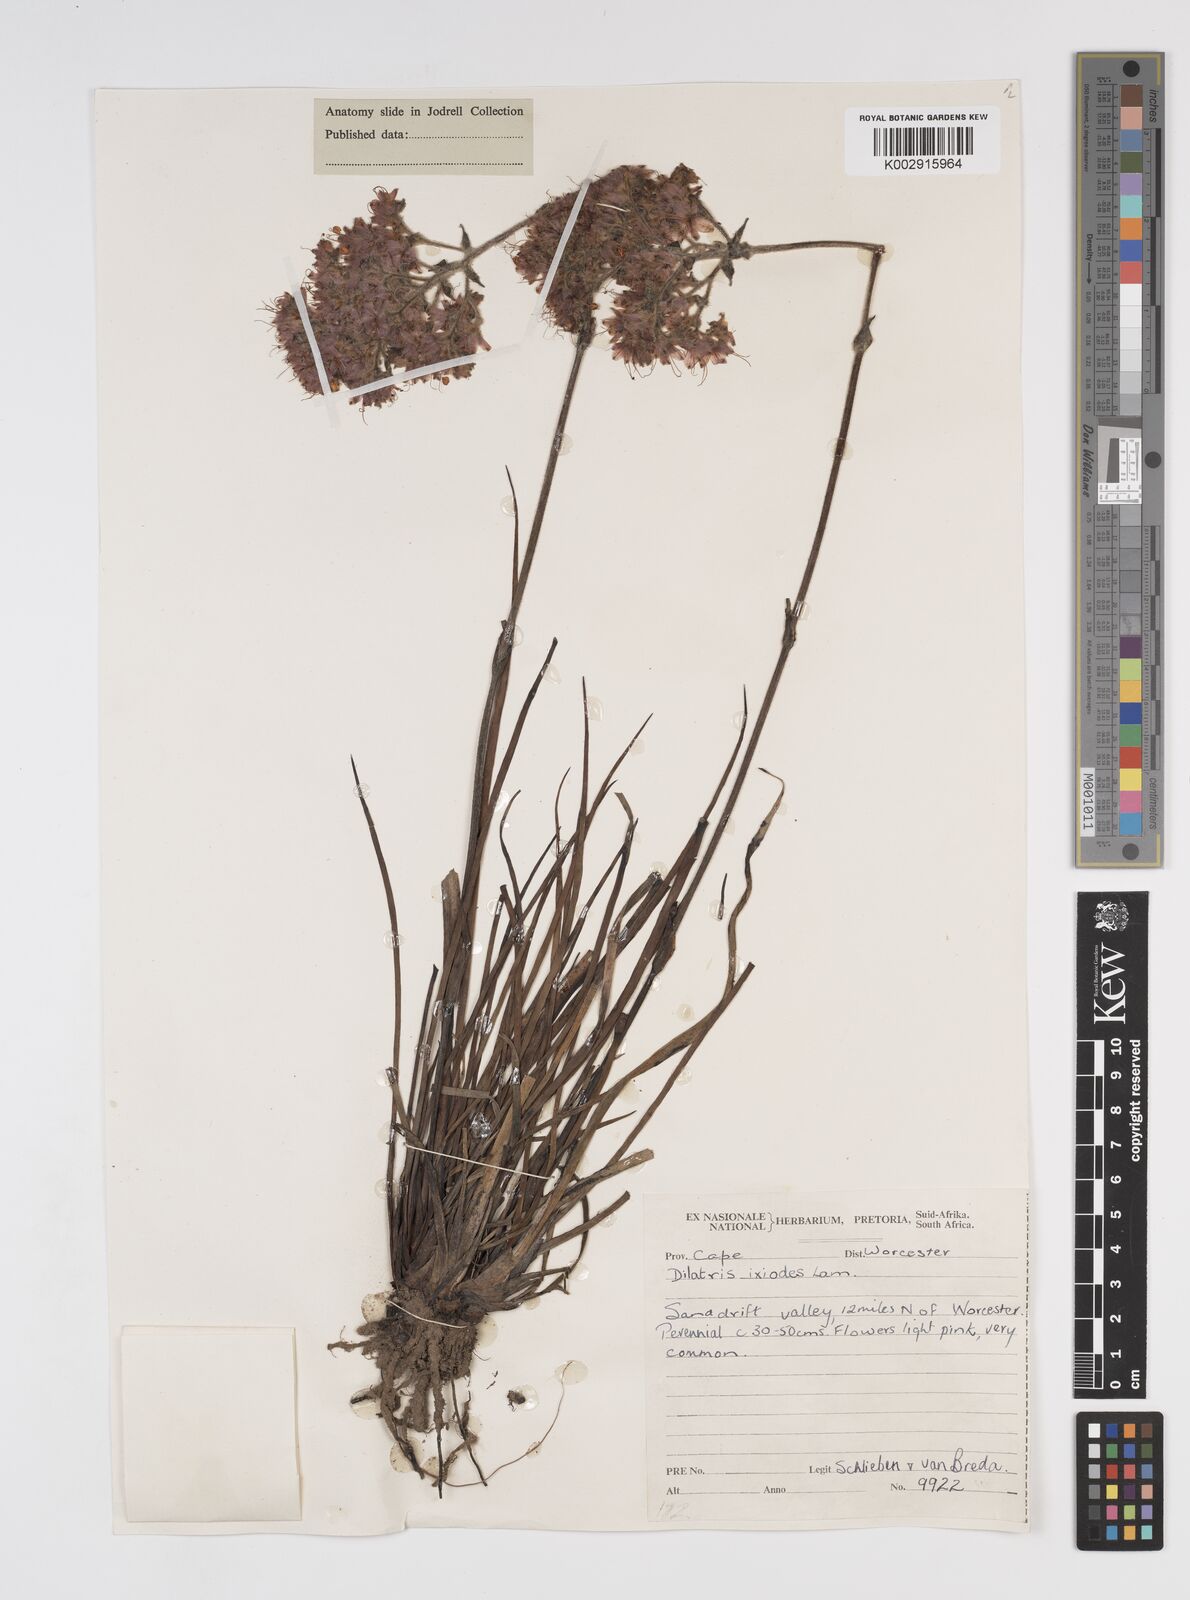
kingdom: Plantae
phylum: Tracheophyta
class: Liliopsida
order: Commelinales
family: Haemodoraceae
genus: Dilatris
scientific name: Dilatris ixioides
